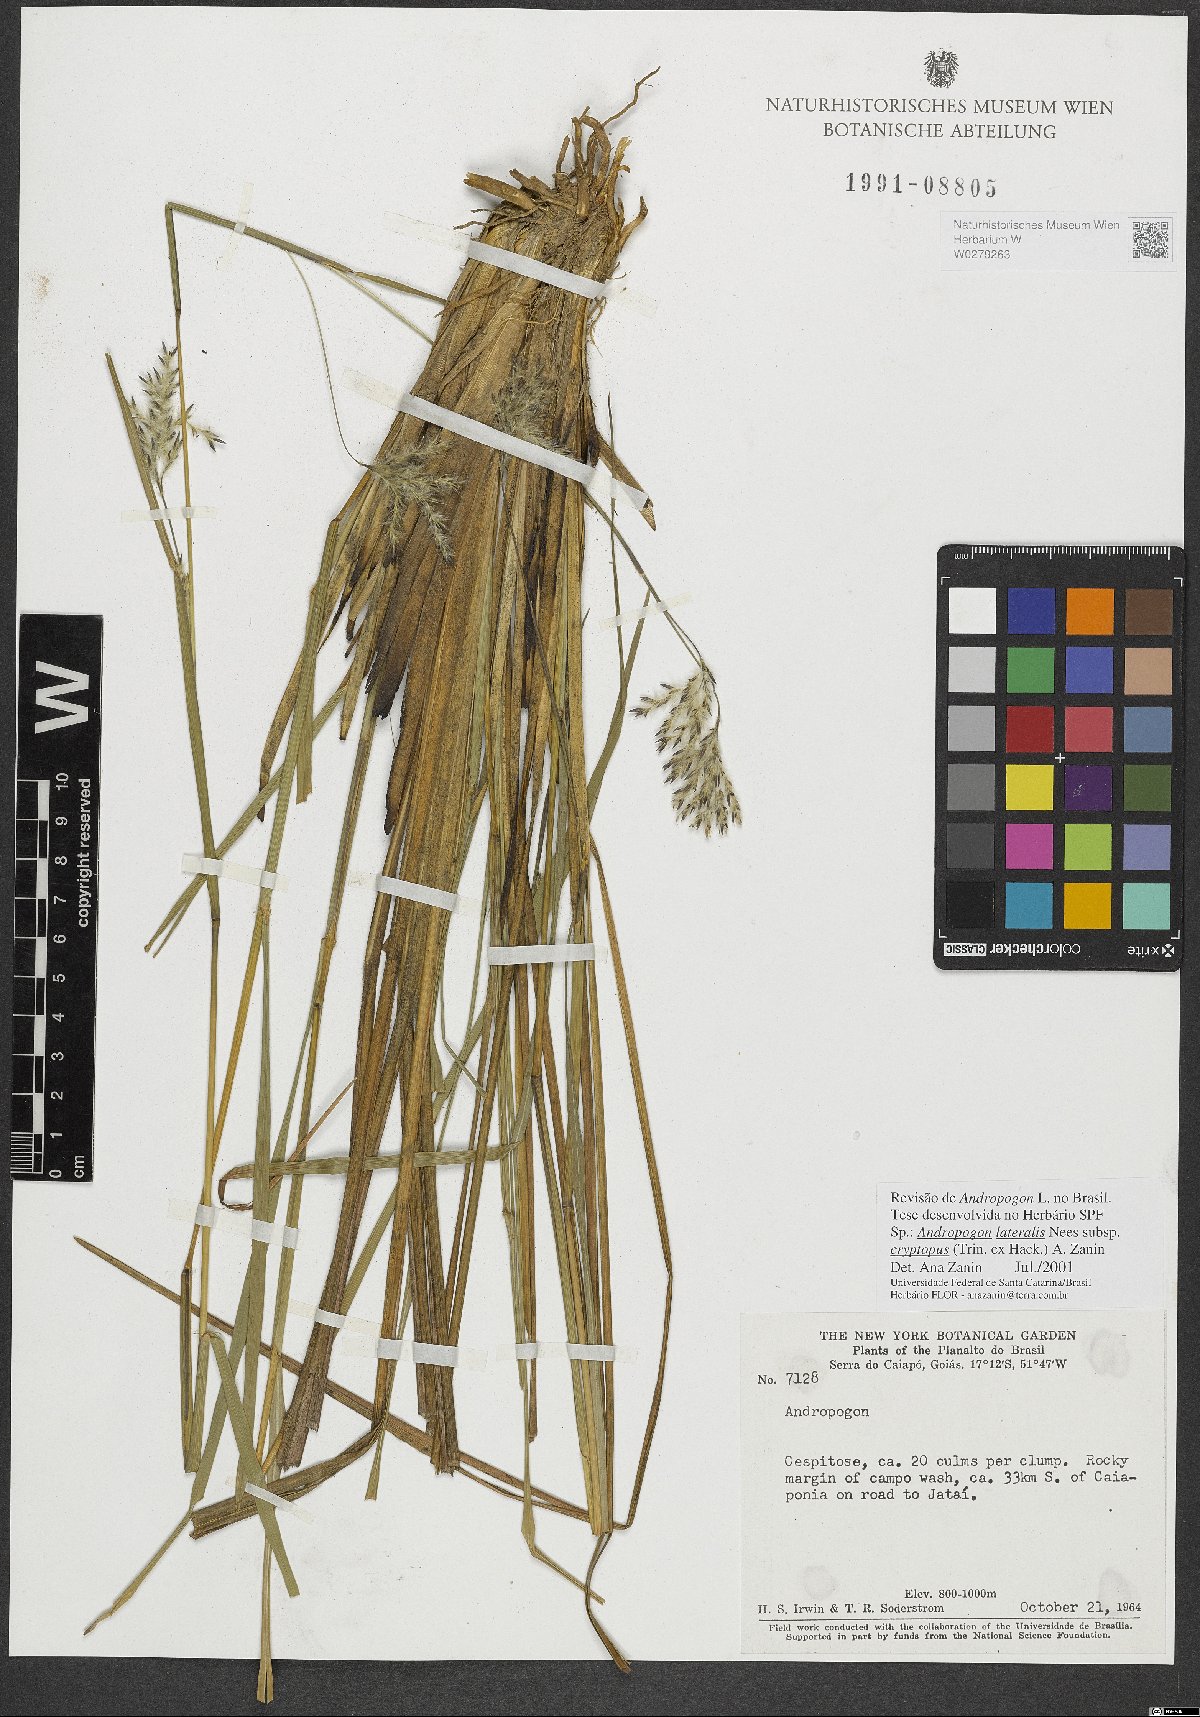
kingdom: Plantae
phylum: Tracheophyta
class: Liliopsida
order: Poales
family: Poaceae
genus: Andropogon
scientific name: Andropogon lateralis
